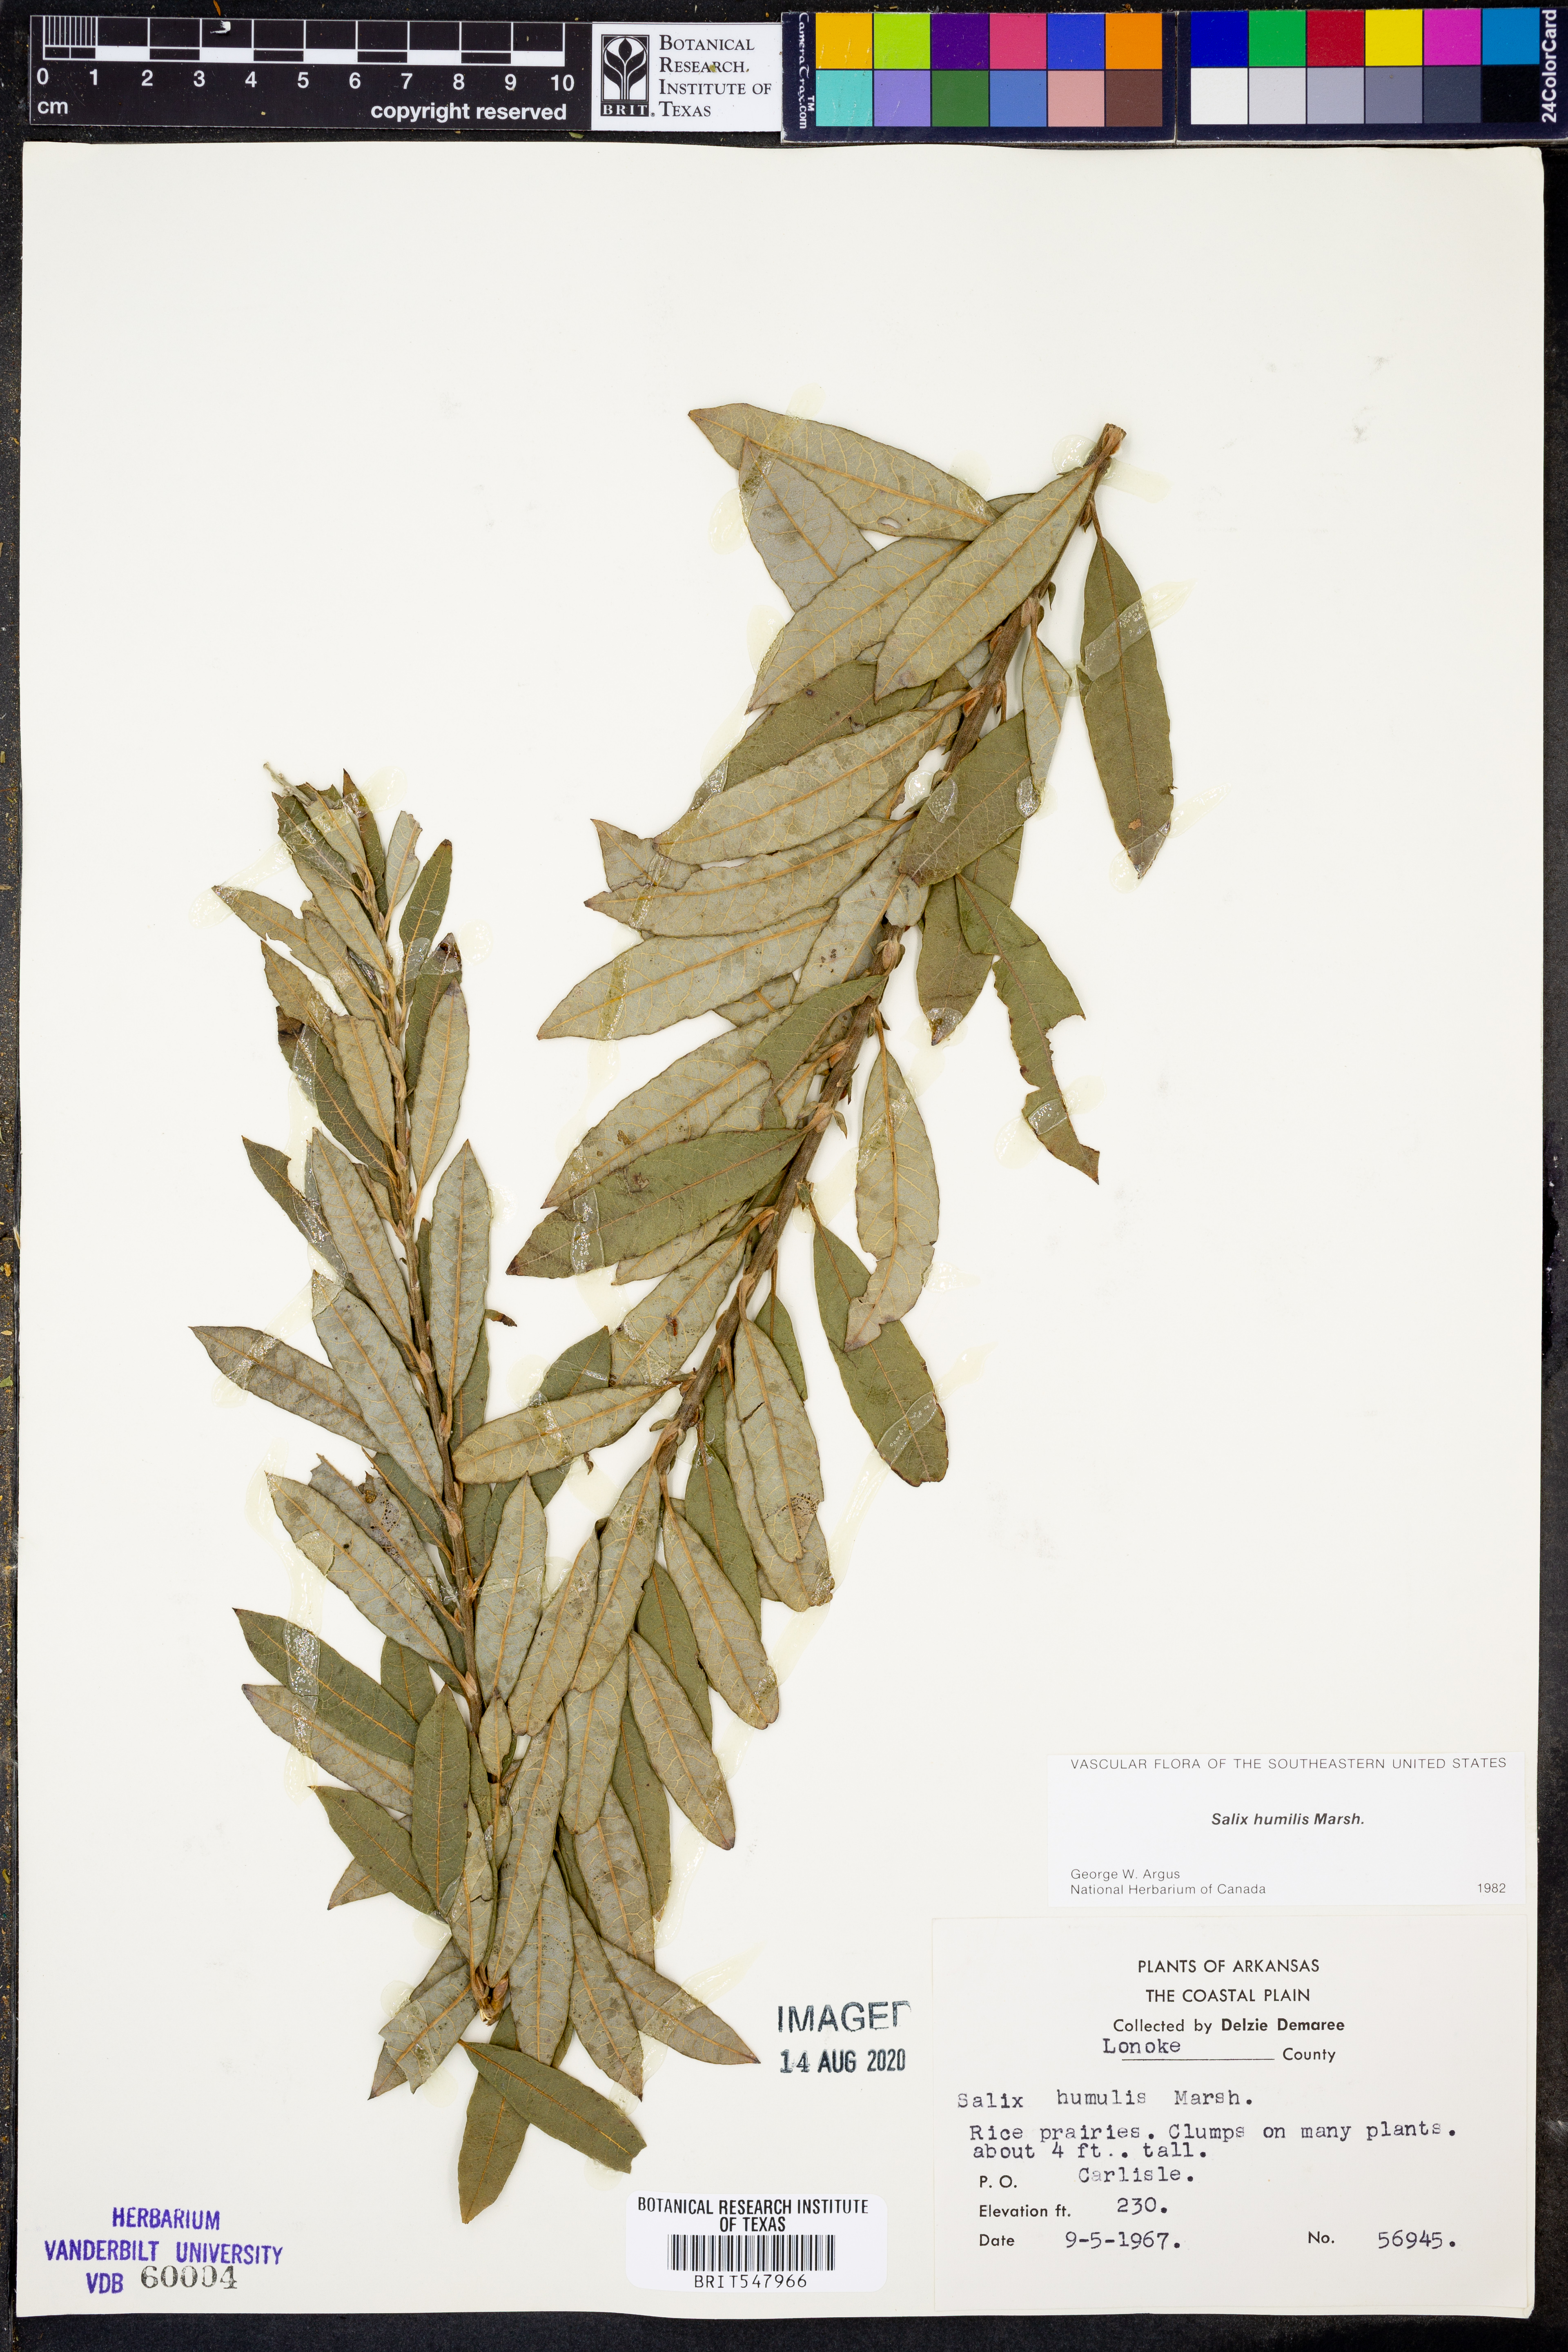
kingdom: Plantae
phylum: Tracheophyta
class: Magnoliopsida
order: Malpighiales
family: Salicaceae
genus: Salix
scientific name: Salix humilis
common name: Prairie willow
